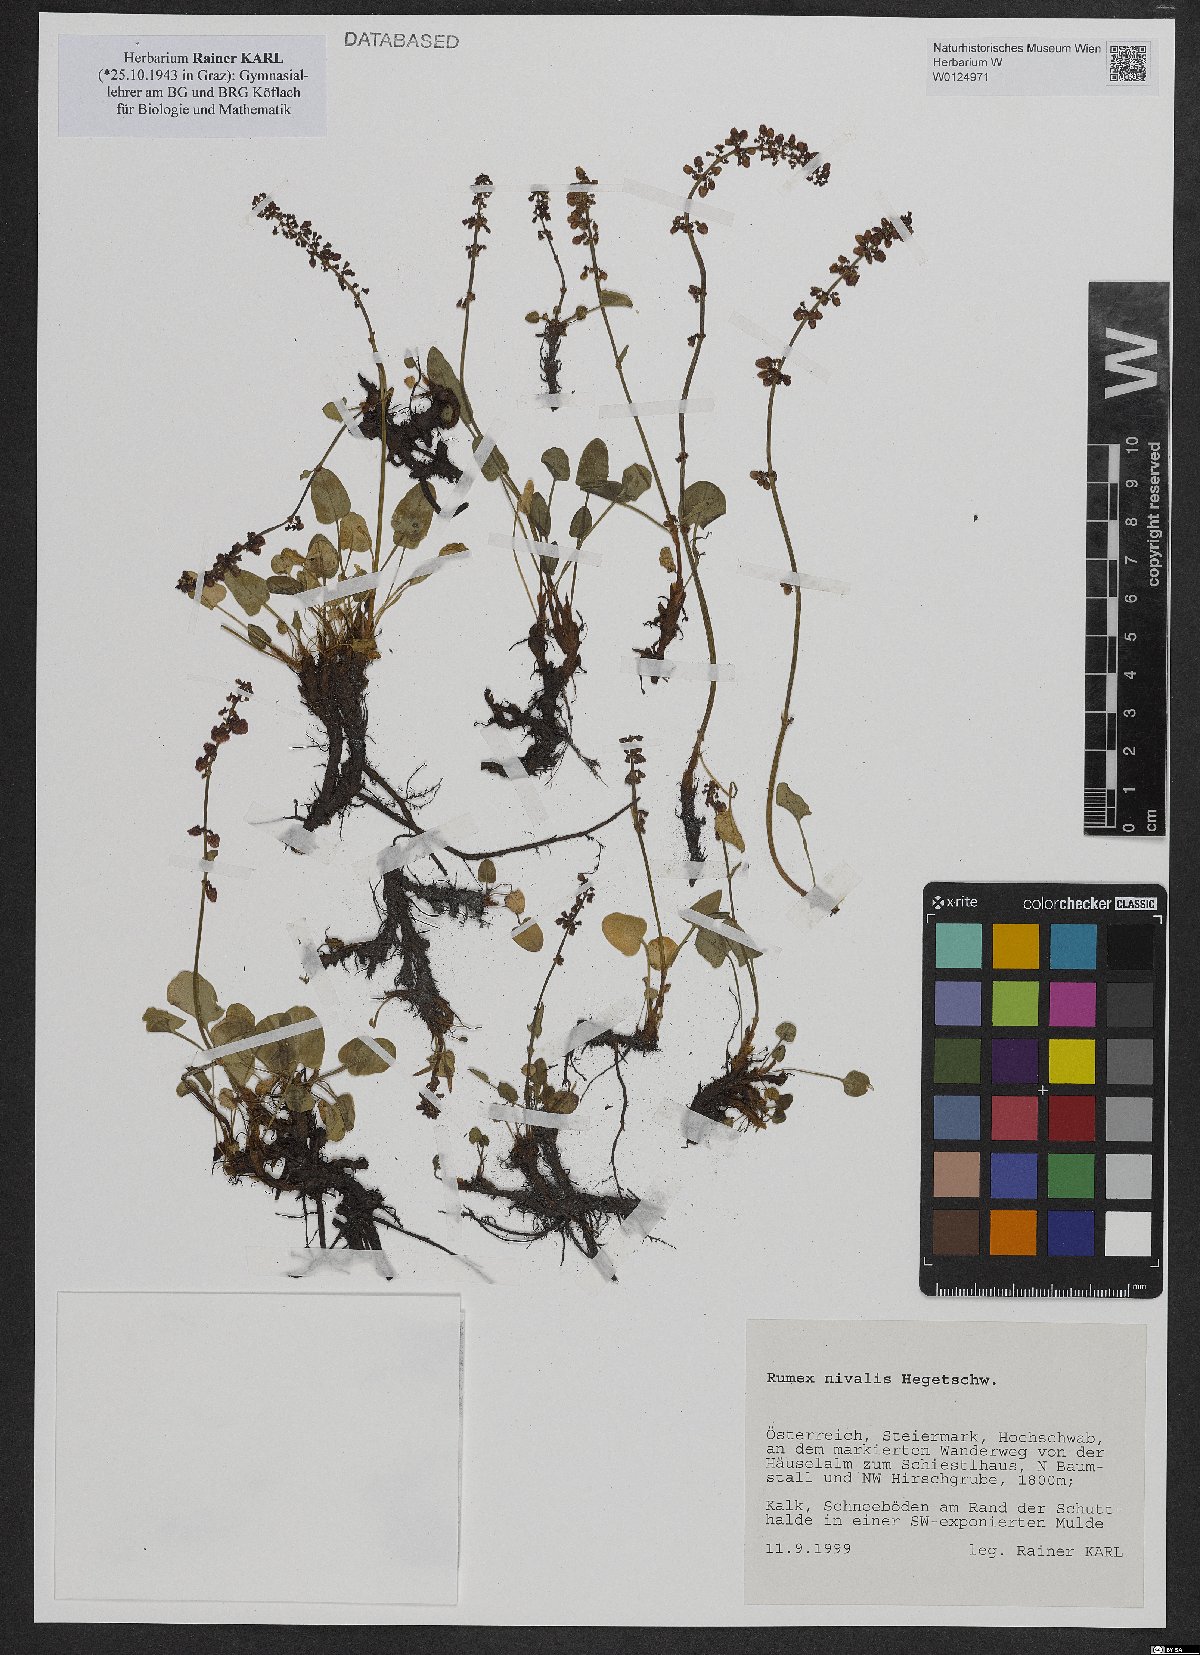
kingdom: Plantae
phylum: Tracheophyta
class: Magnoliopsida
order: Caryophyllales
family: Polygonaceae
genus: Rumex
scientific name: Rumex nivalis
